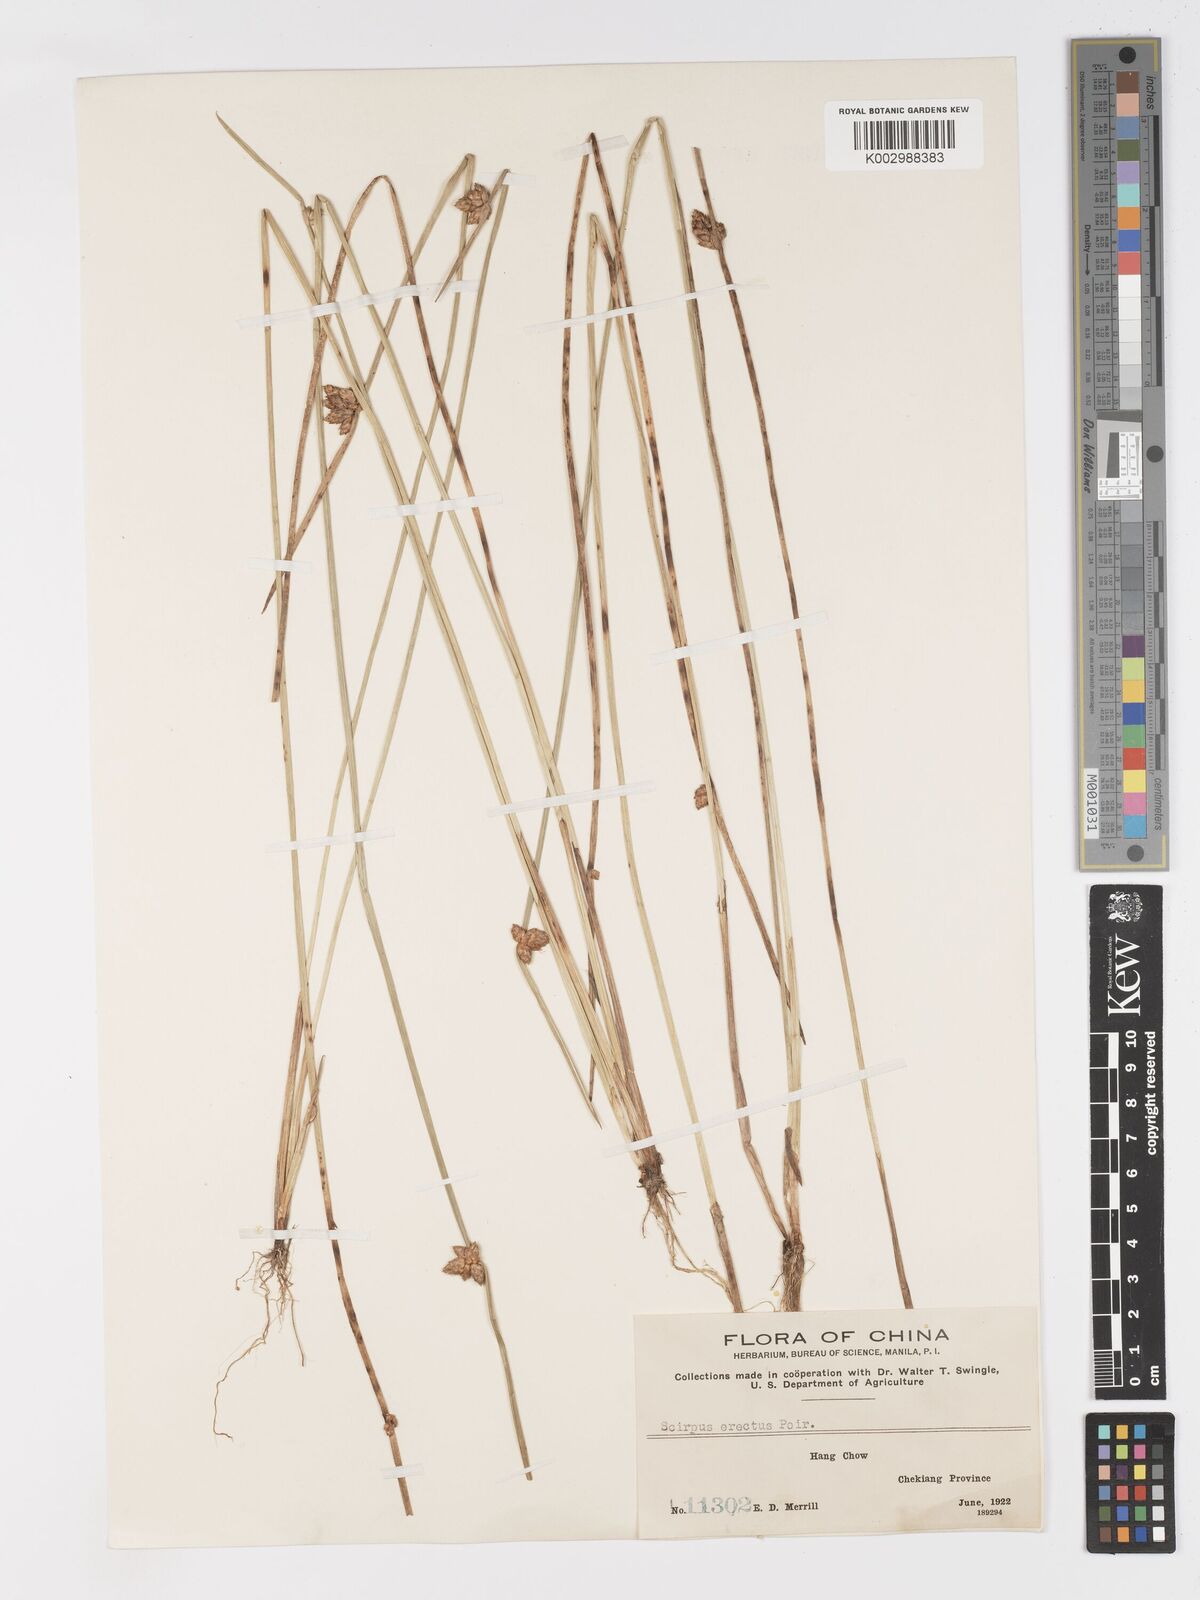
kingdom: Plantae
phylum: Tracheophyta
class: Liliopsida
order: Poales
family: Cyperaceae
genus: Schoenoplectiella
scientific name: Schoenoplectiella erecta
